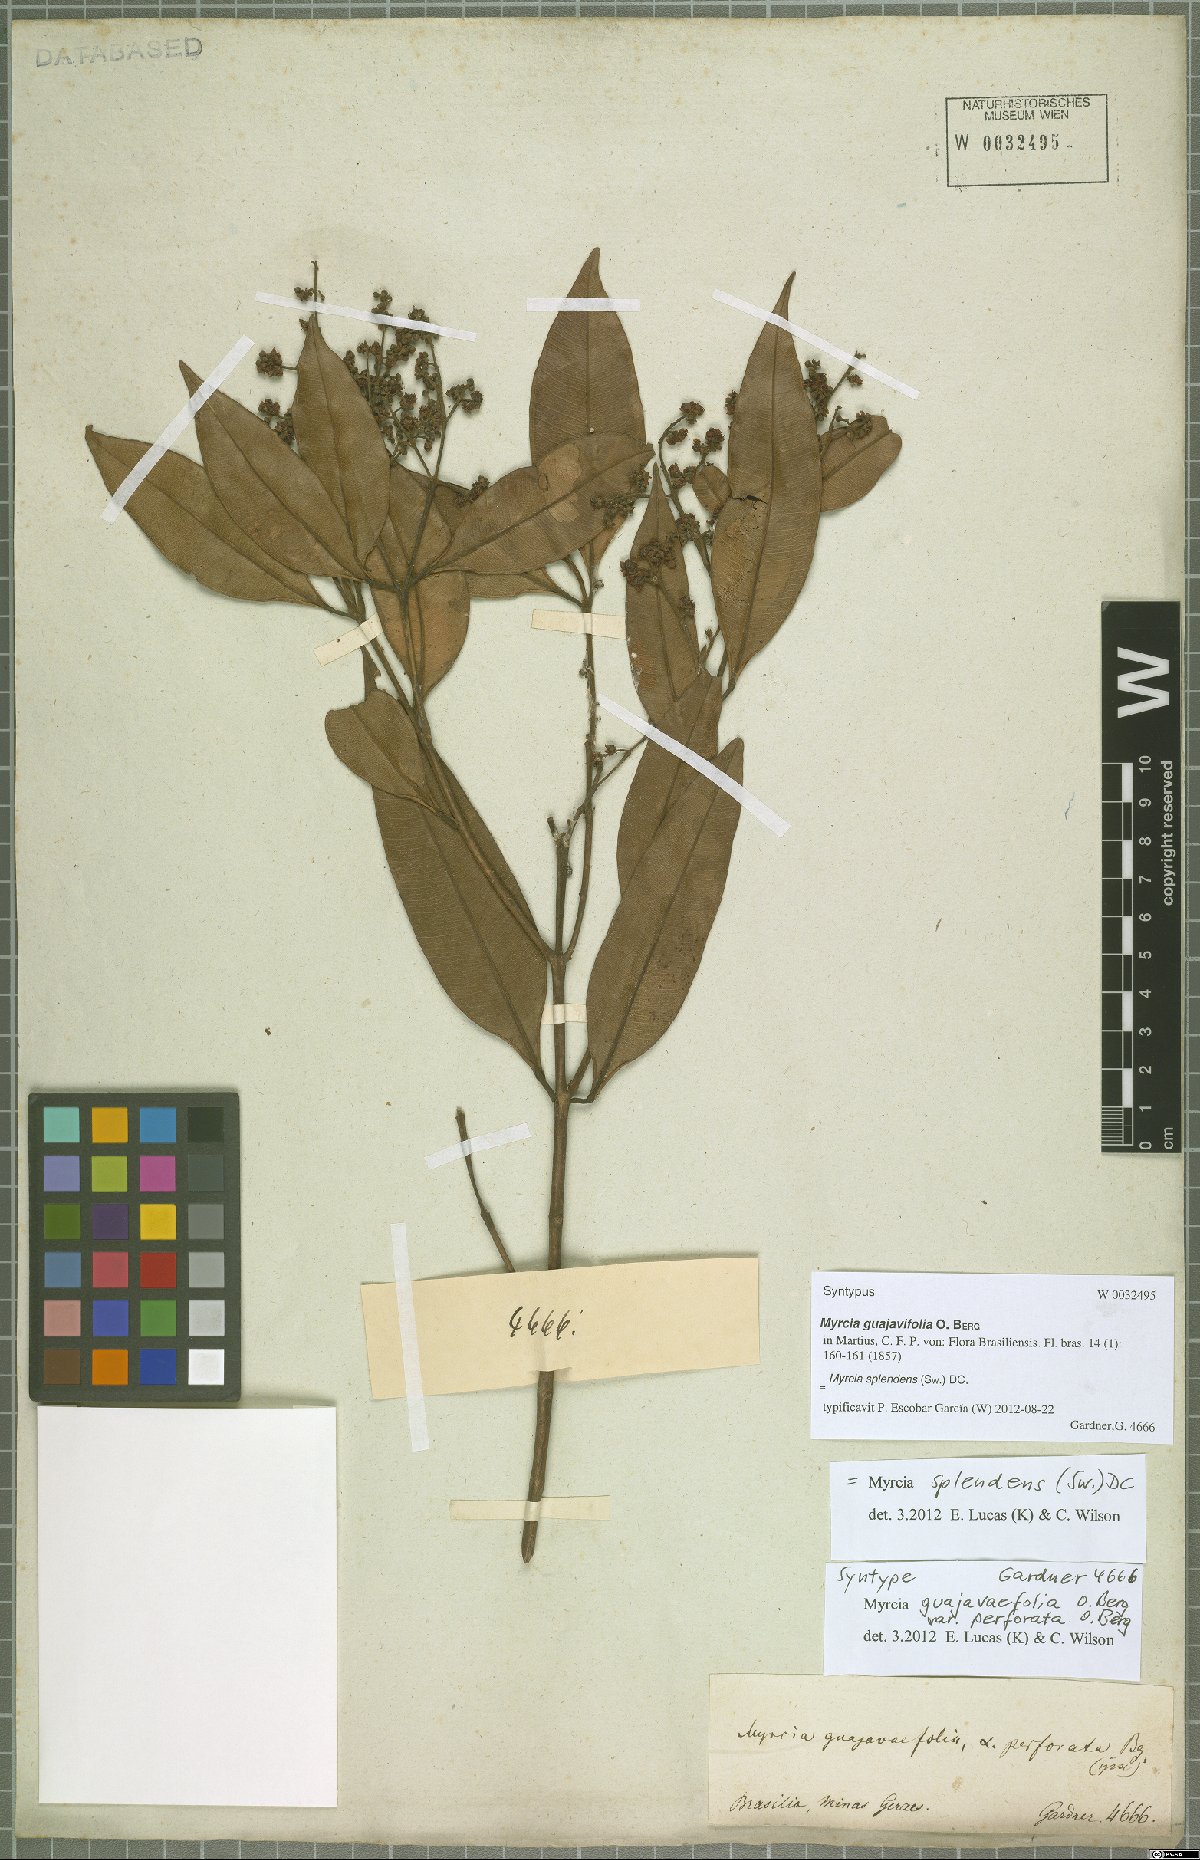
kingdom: Plantae
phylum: Tracheophyta
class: Magnoliopsida
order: Myrtales
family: Myrtaceae
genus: Myrcia
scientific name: Myrcia splendens
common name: Surinam cherry
